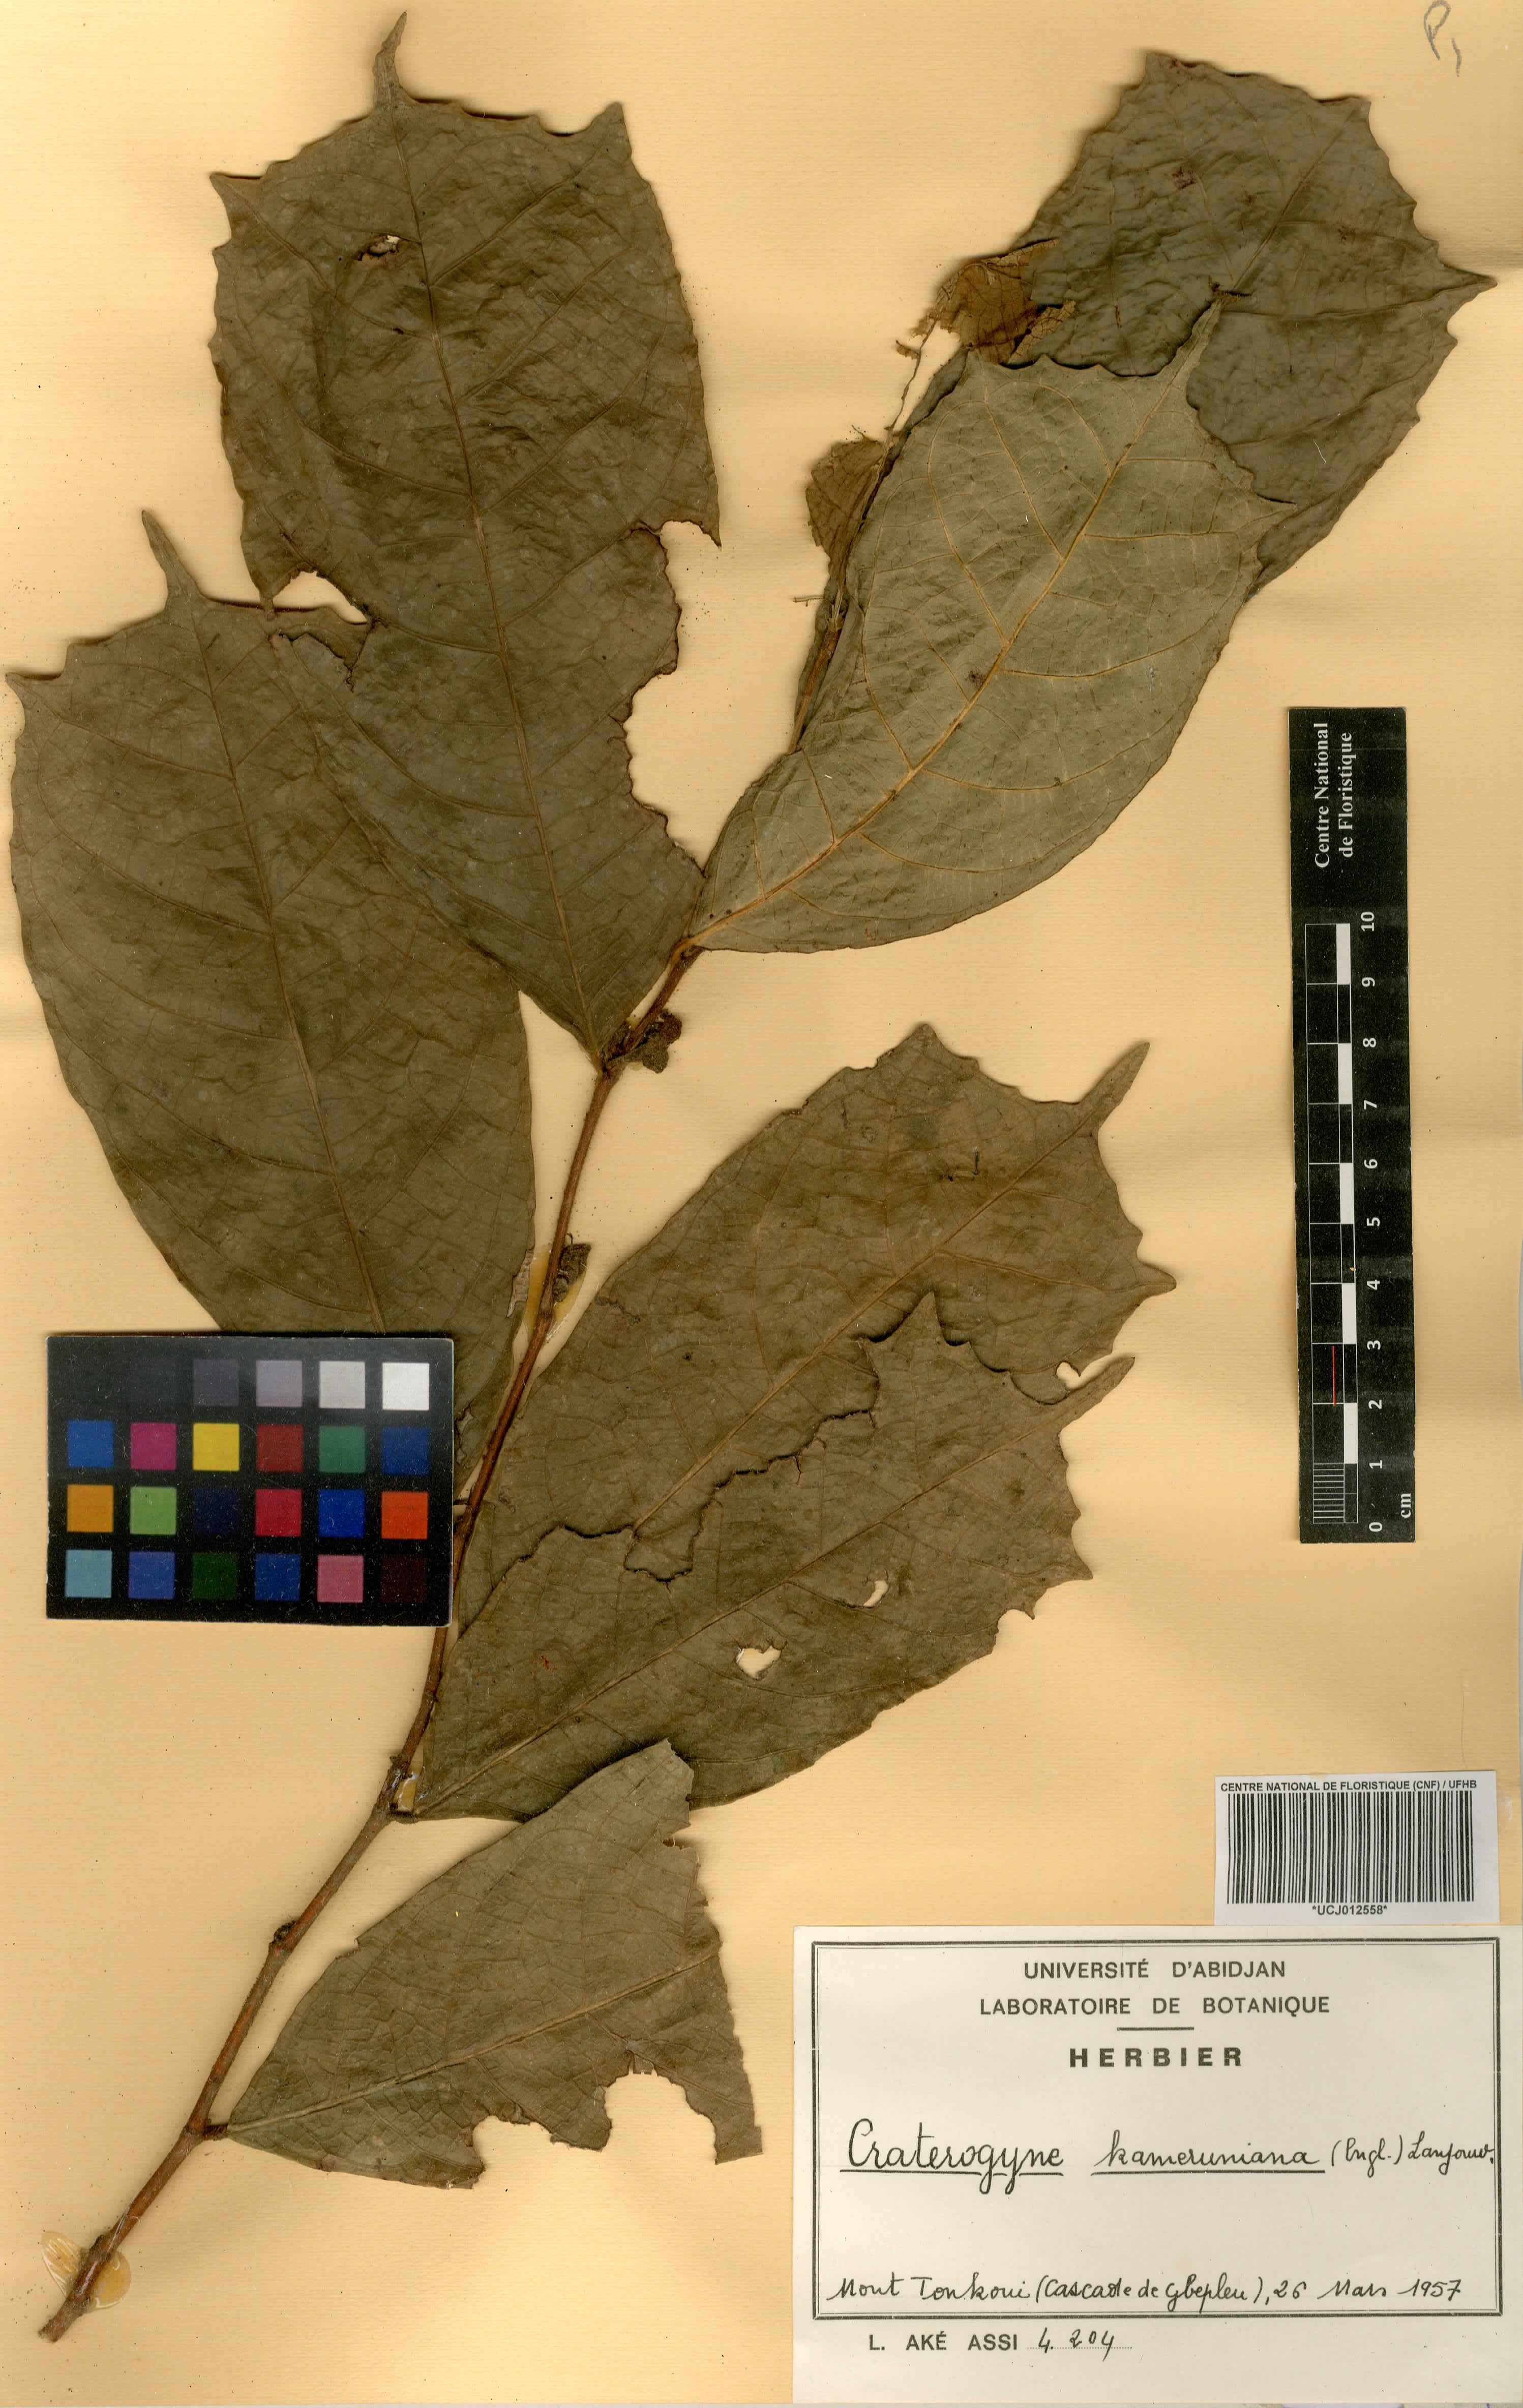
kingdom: Plantae
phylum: Tracheophyta
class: Magnoliopsida
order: Rosales
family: Moraceae
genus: Dorstenia
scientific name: Dorstenia kameruniana
